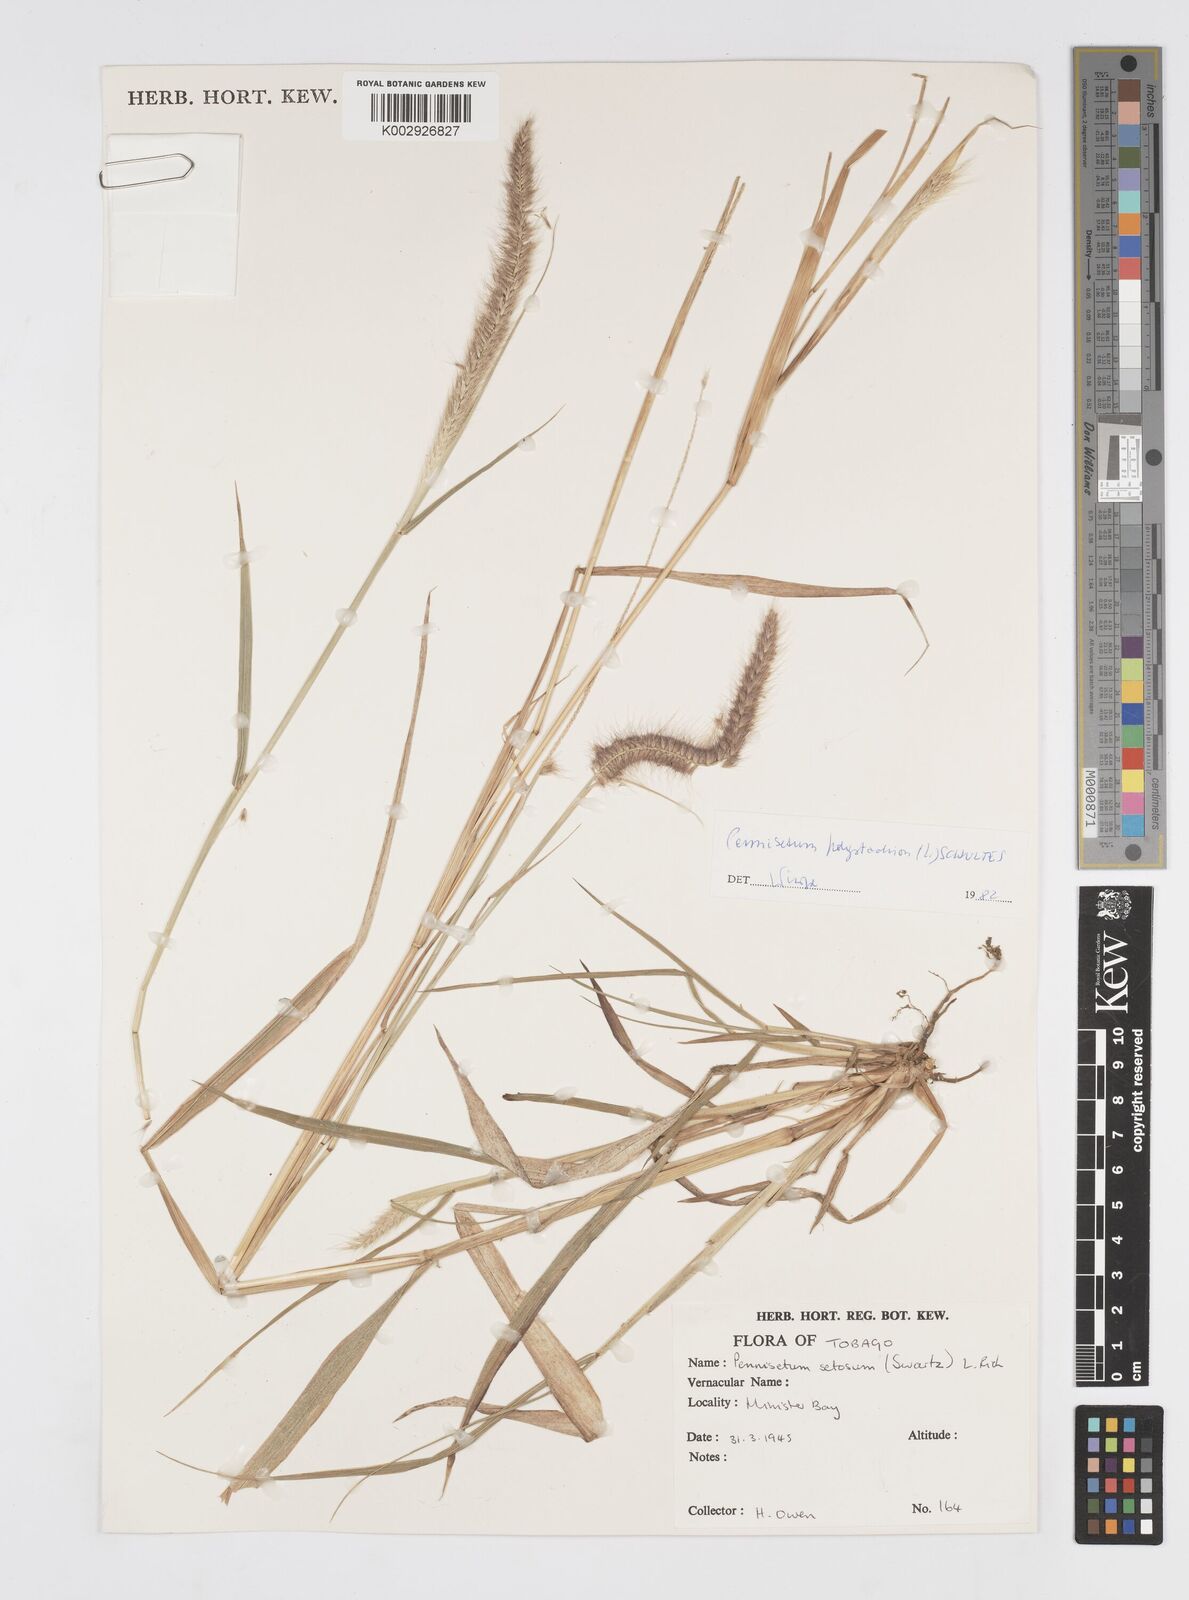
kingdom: Plantae
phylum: Tracheophyta
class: Liliopsida
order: Poales
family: Poaceae
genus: Cenchrus
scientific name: Cenchrus setosus
